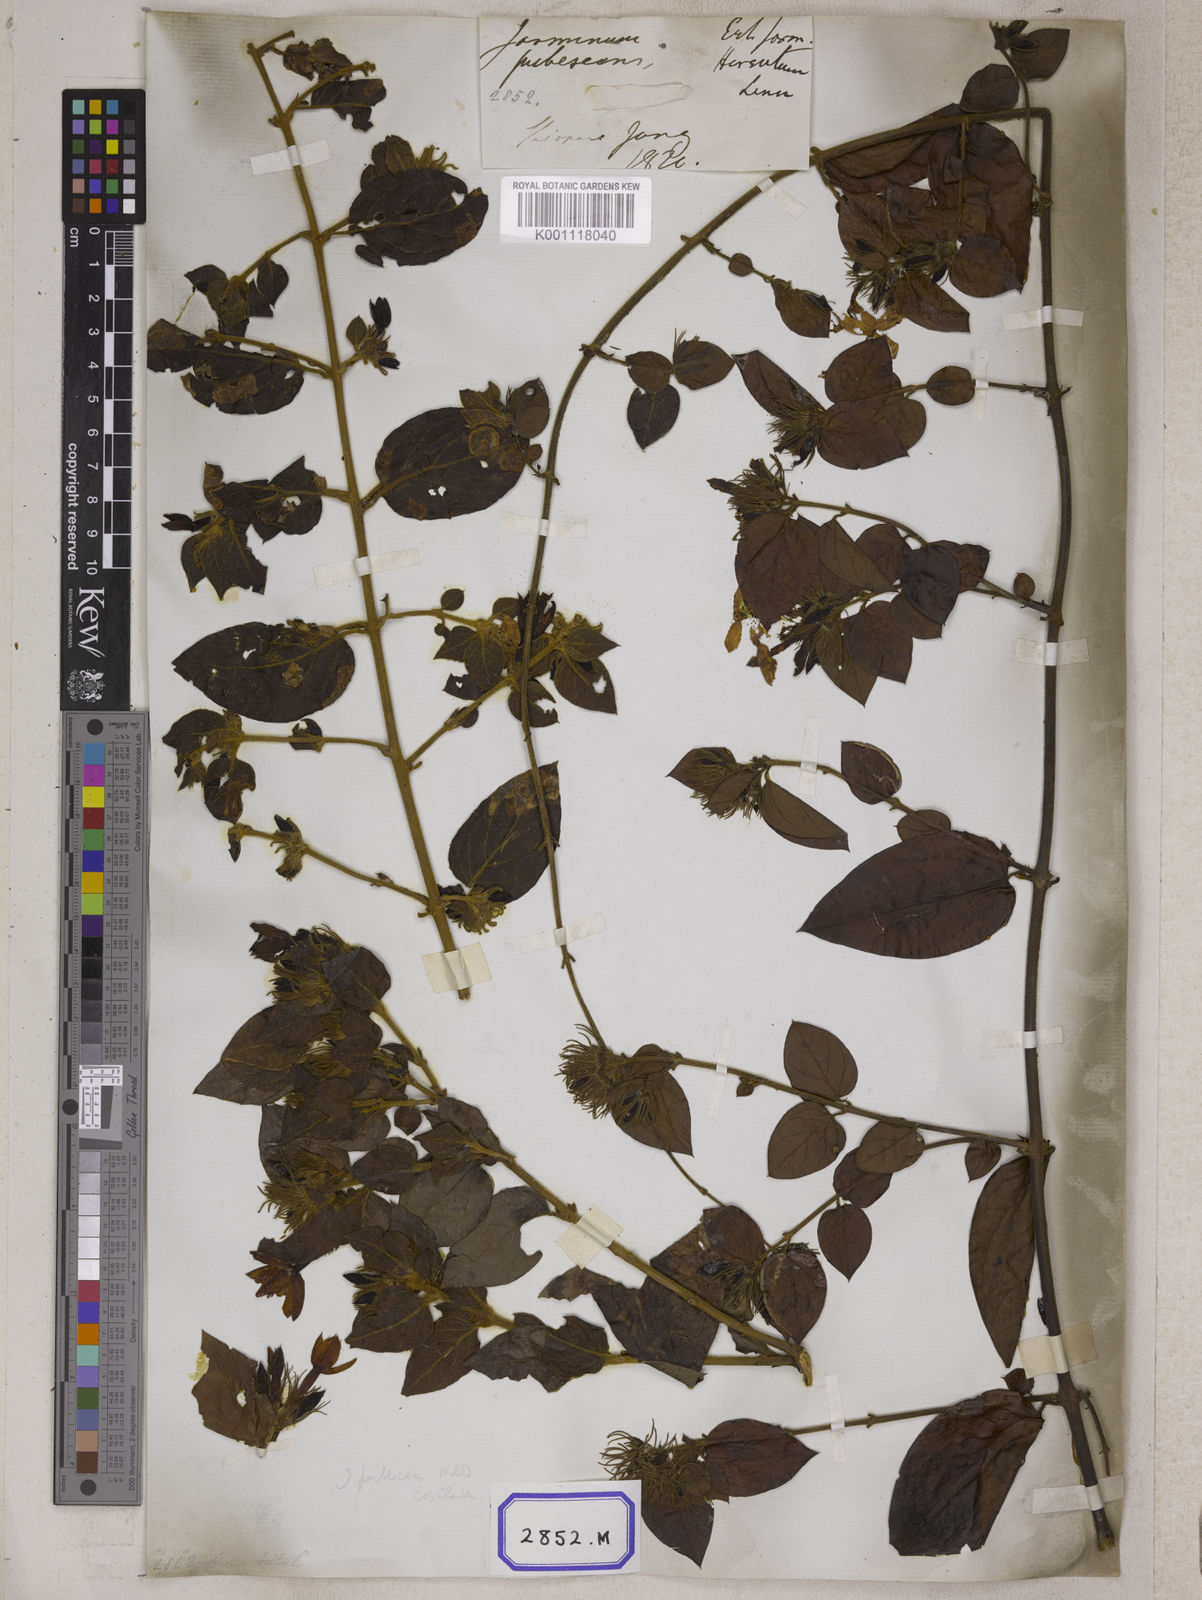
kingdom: Plantae
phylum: Tracheophyta
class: Magnoliopsida
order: Gentianales
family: Rubiaceae
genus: Guettarda
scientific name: Guettarda speciosa
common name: Sea randa
